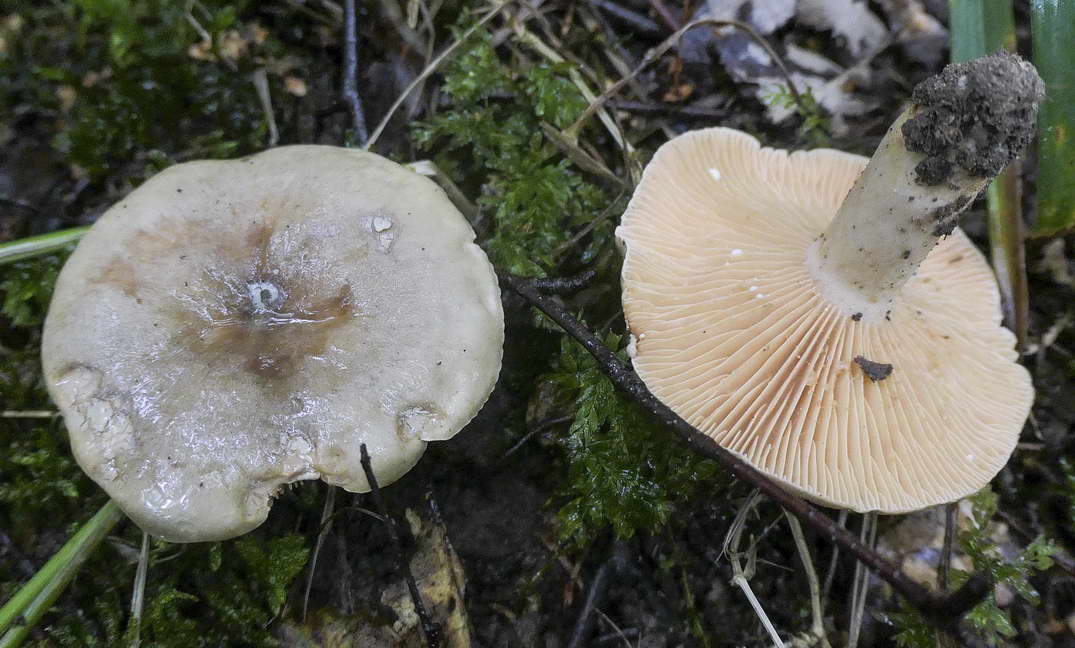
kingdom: Fungi
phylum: Basidiomycota
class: Agaricomycetes
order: Russulales
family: Russulaceae
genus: Lactarius
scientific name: Lactarius pyrogalus
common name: hassel-mælkehat
